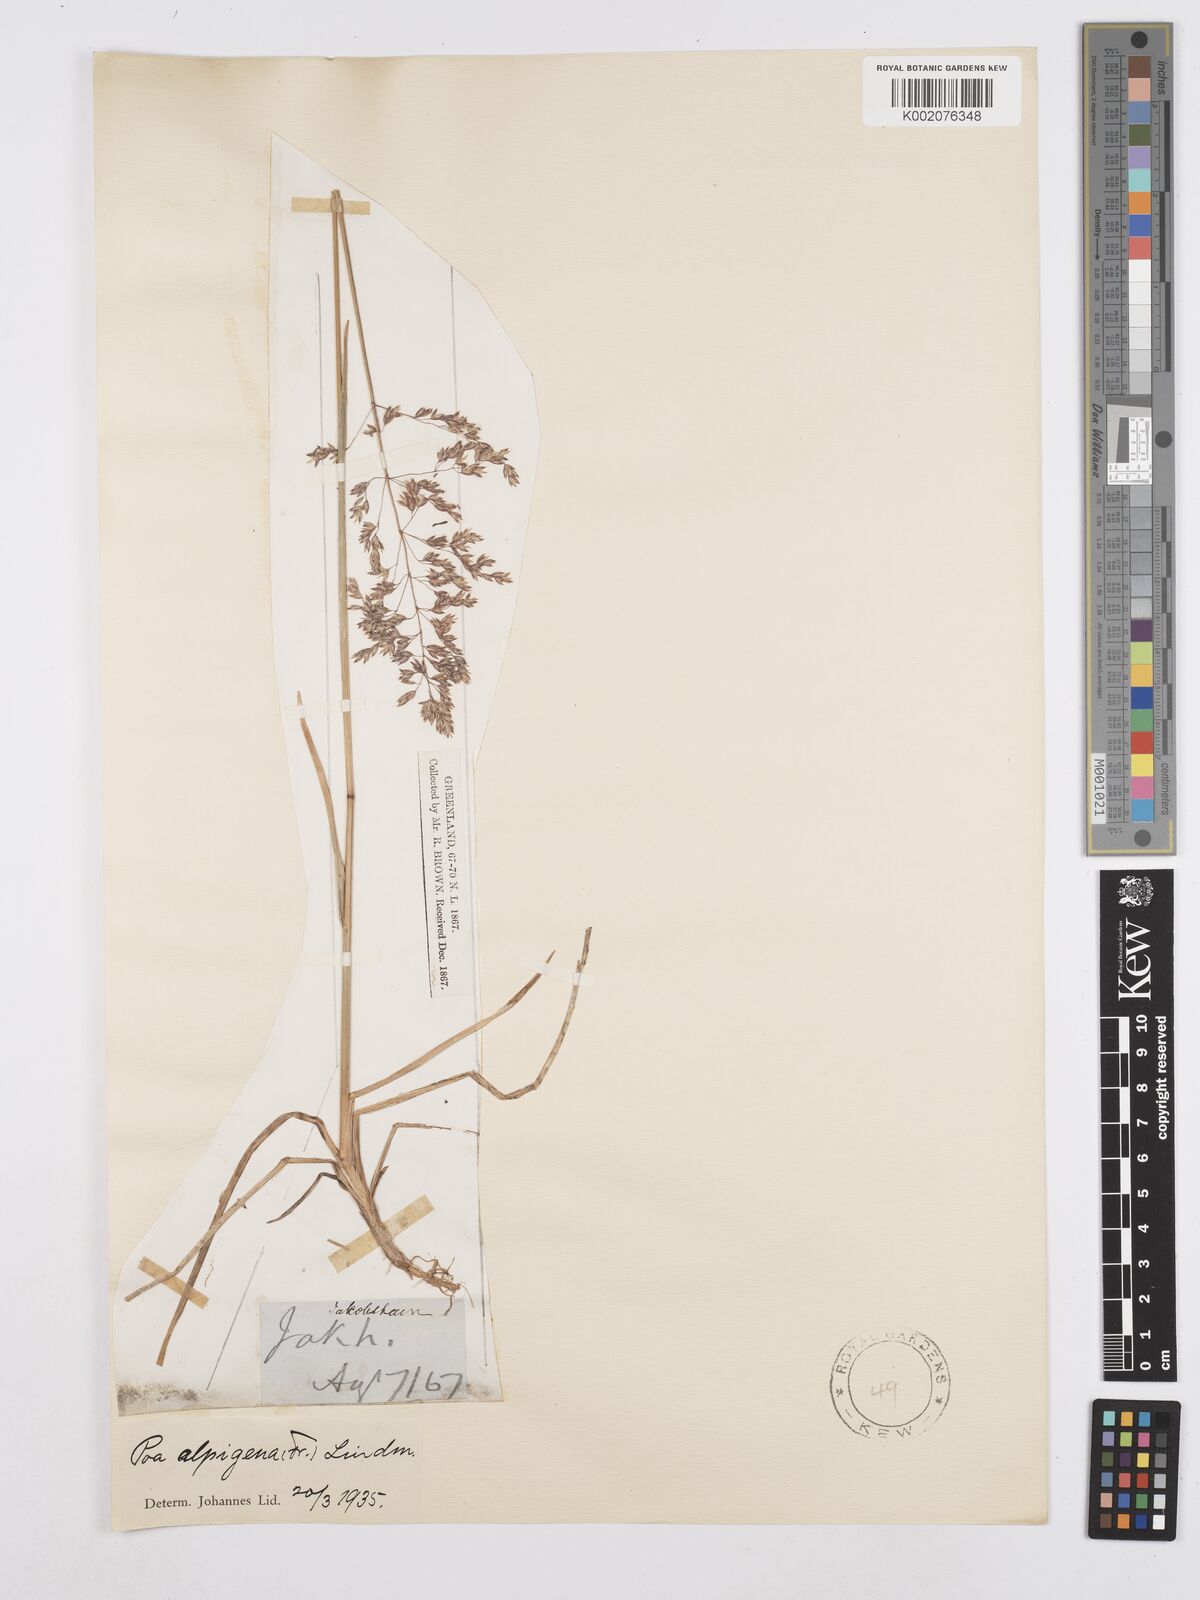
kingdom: Plantae
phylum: Tracheophyta
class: Liliopsida
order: Poales
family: Poaceae
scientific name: Poaceae
